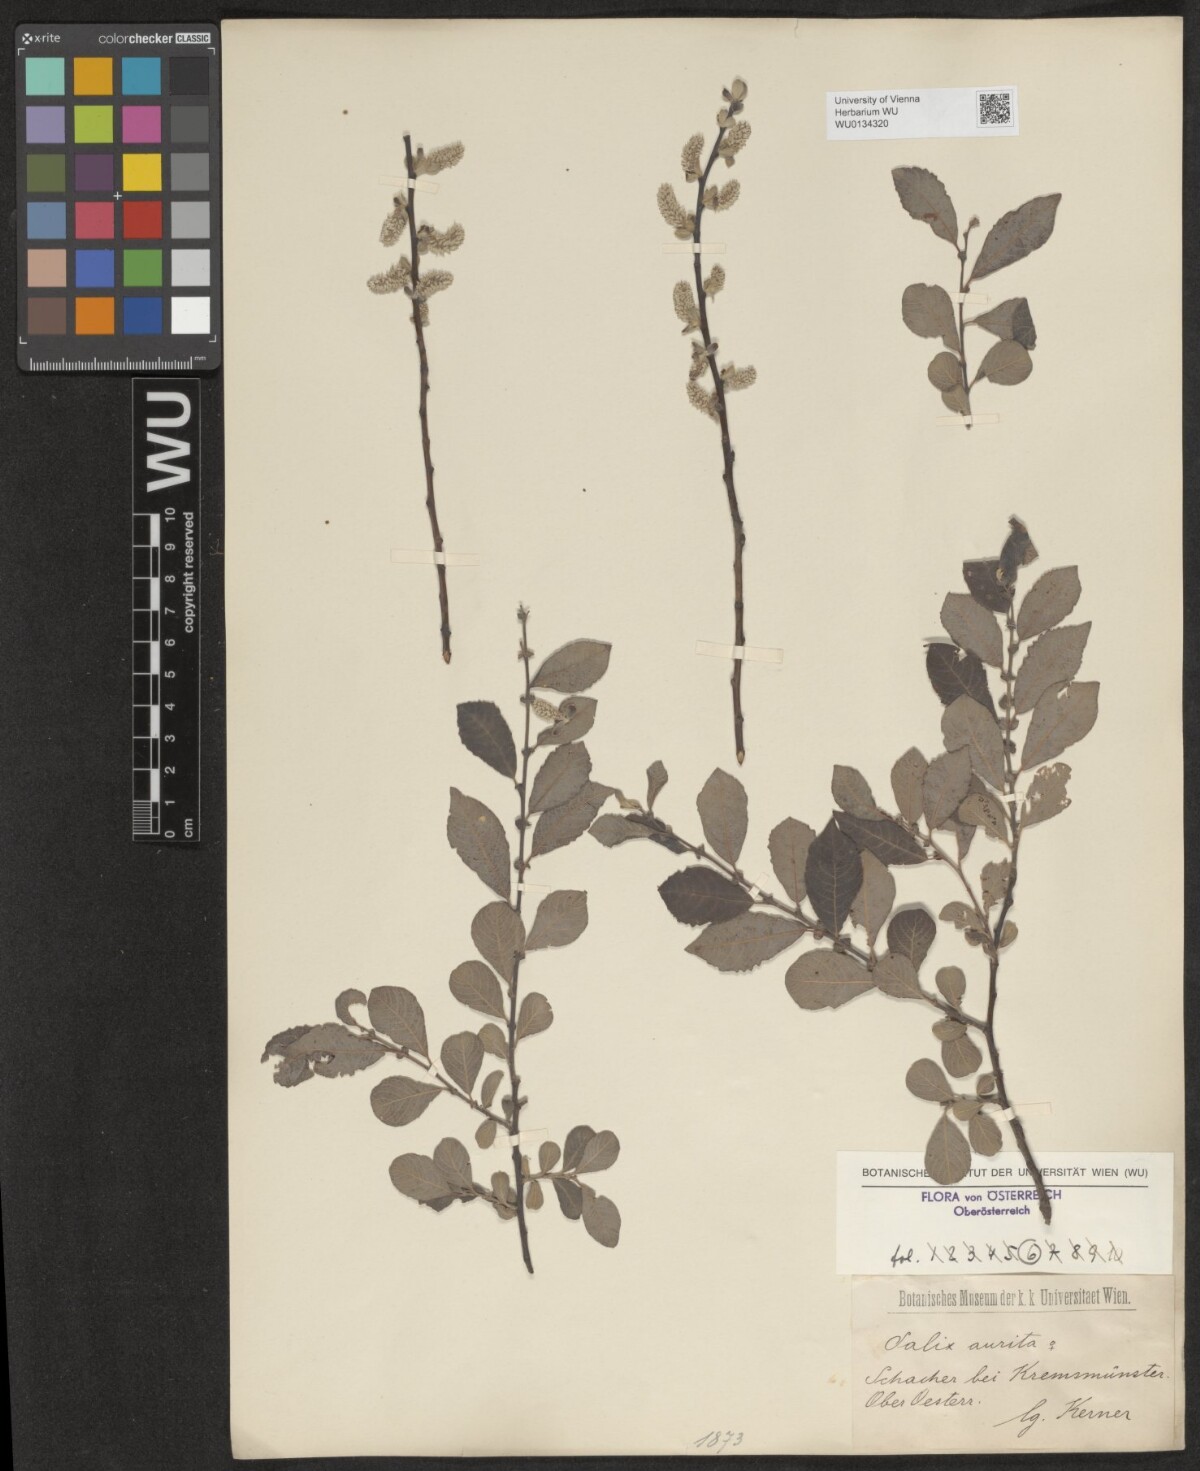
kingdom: Plantae
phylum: Tracheophyta
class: Magnoliopsida
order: Malpighiales
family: Salicaceae
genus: Salix
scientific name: Salix aurita
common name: Eared willow
